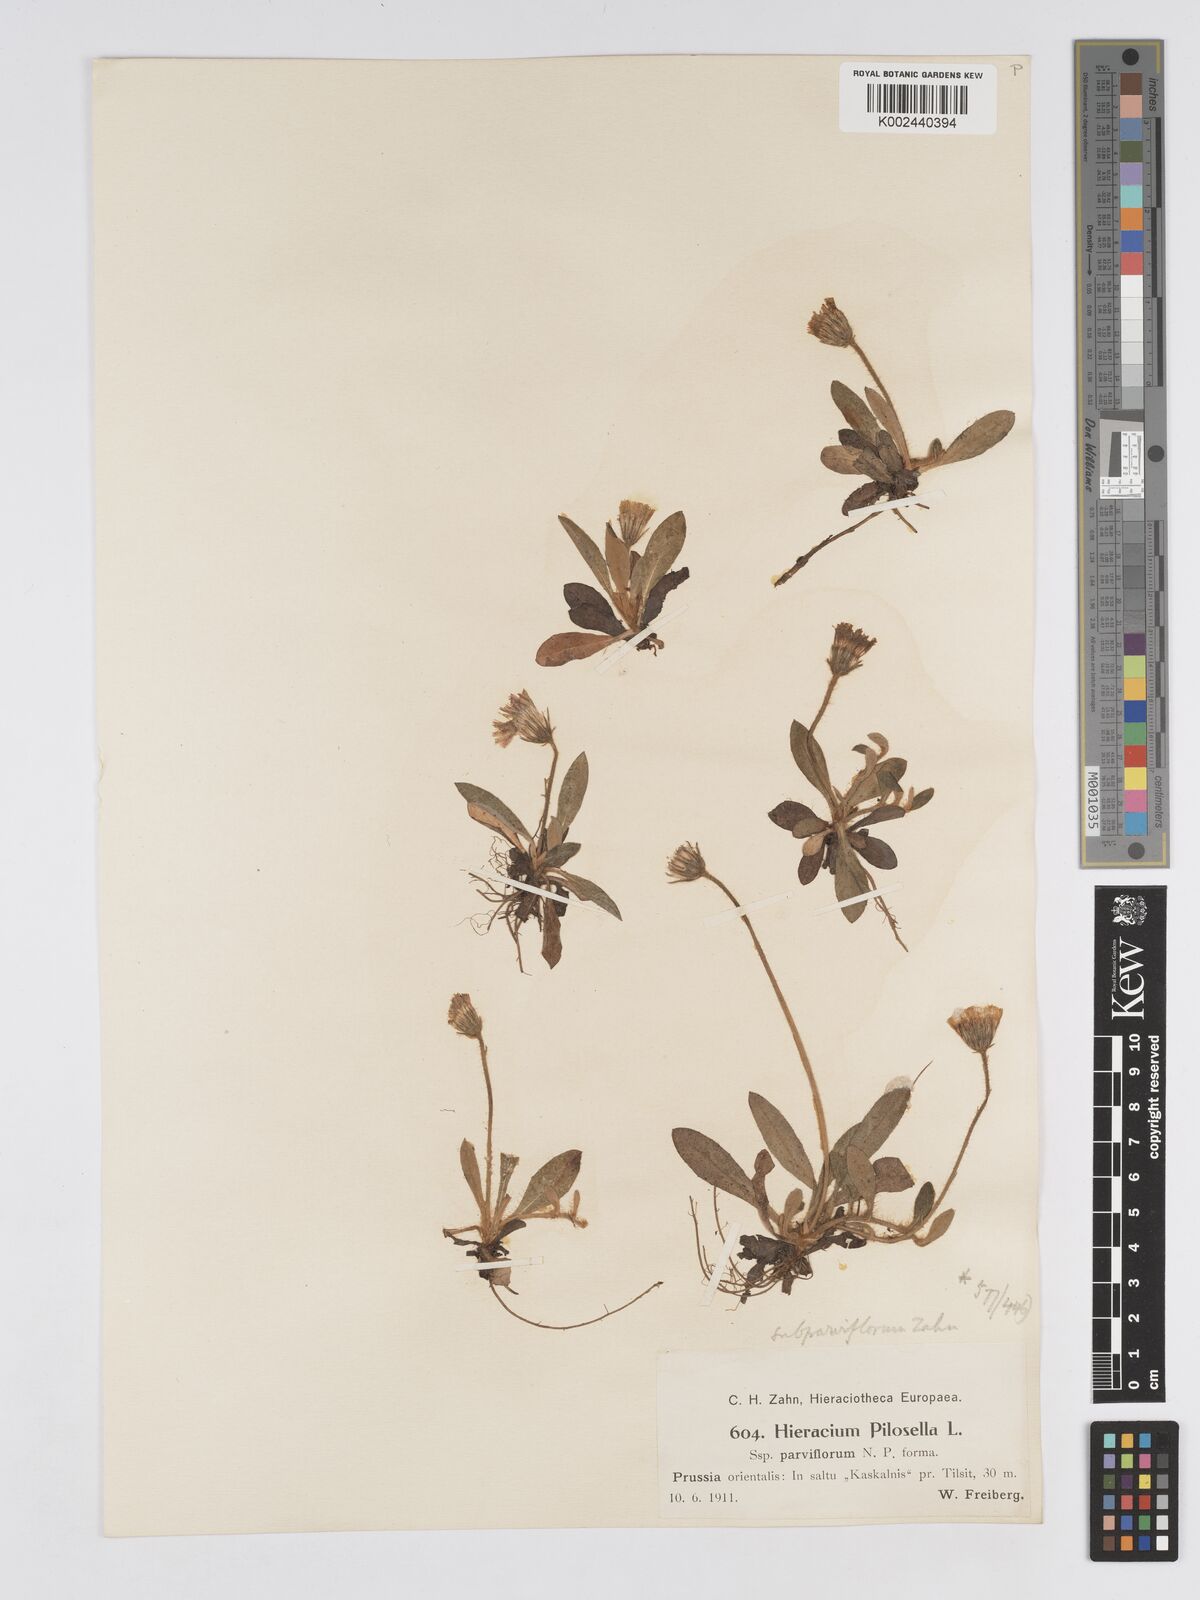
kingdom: Plantae
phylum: Tracheophyta
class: Magnoliopsida
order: Asterales
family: Asteraceae
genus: Pilosella
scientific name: Pilosella officinarum
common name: Mouse-ear hawkweed
